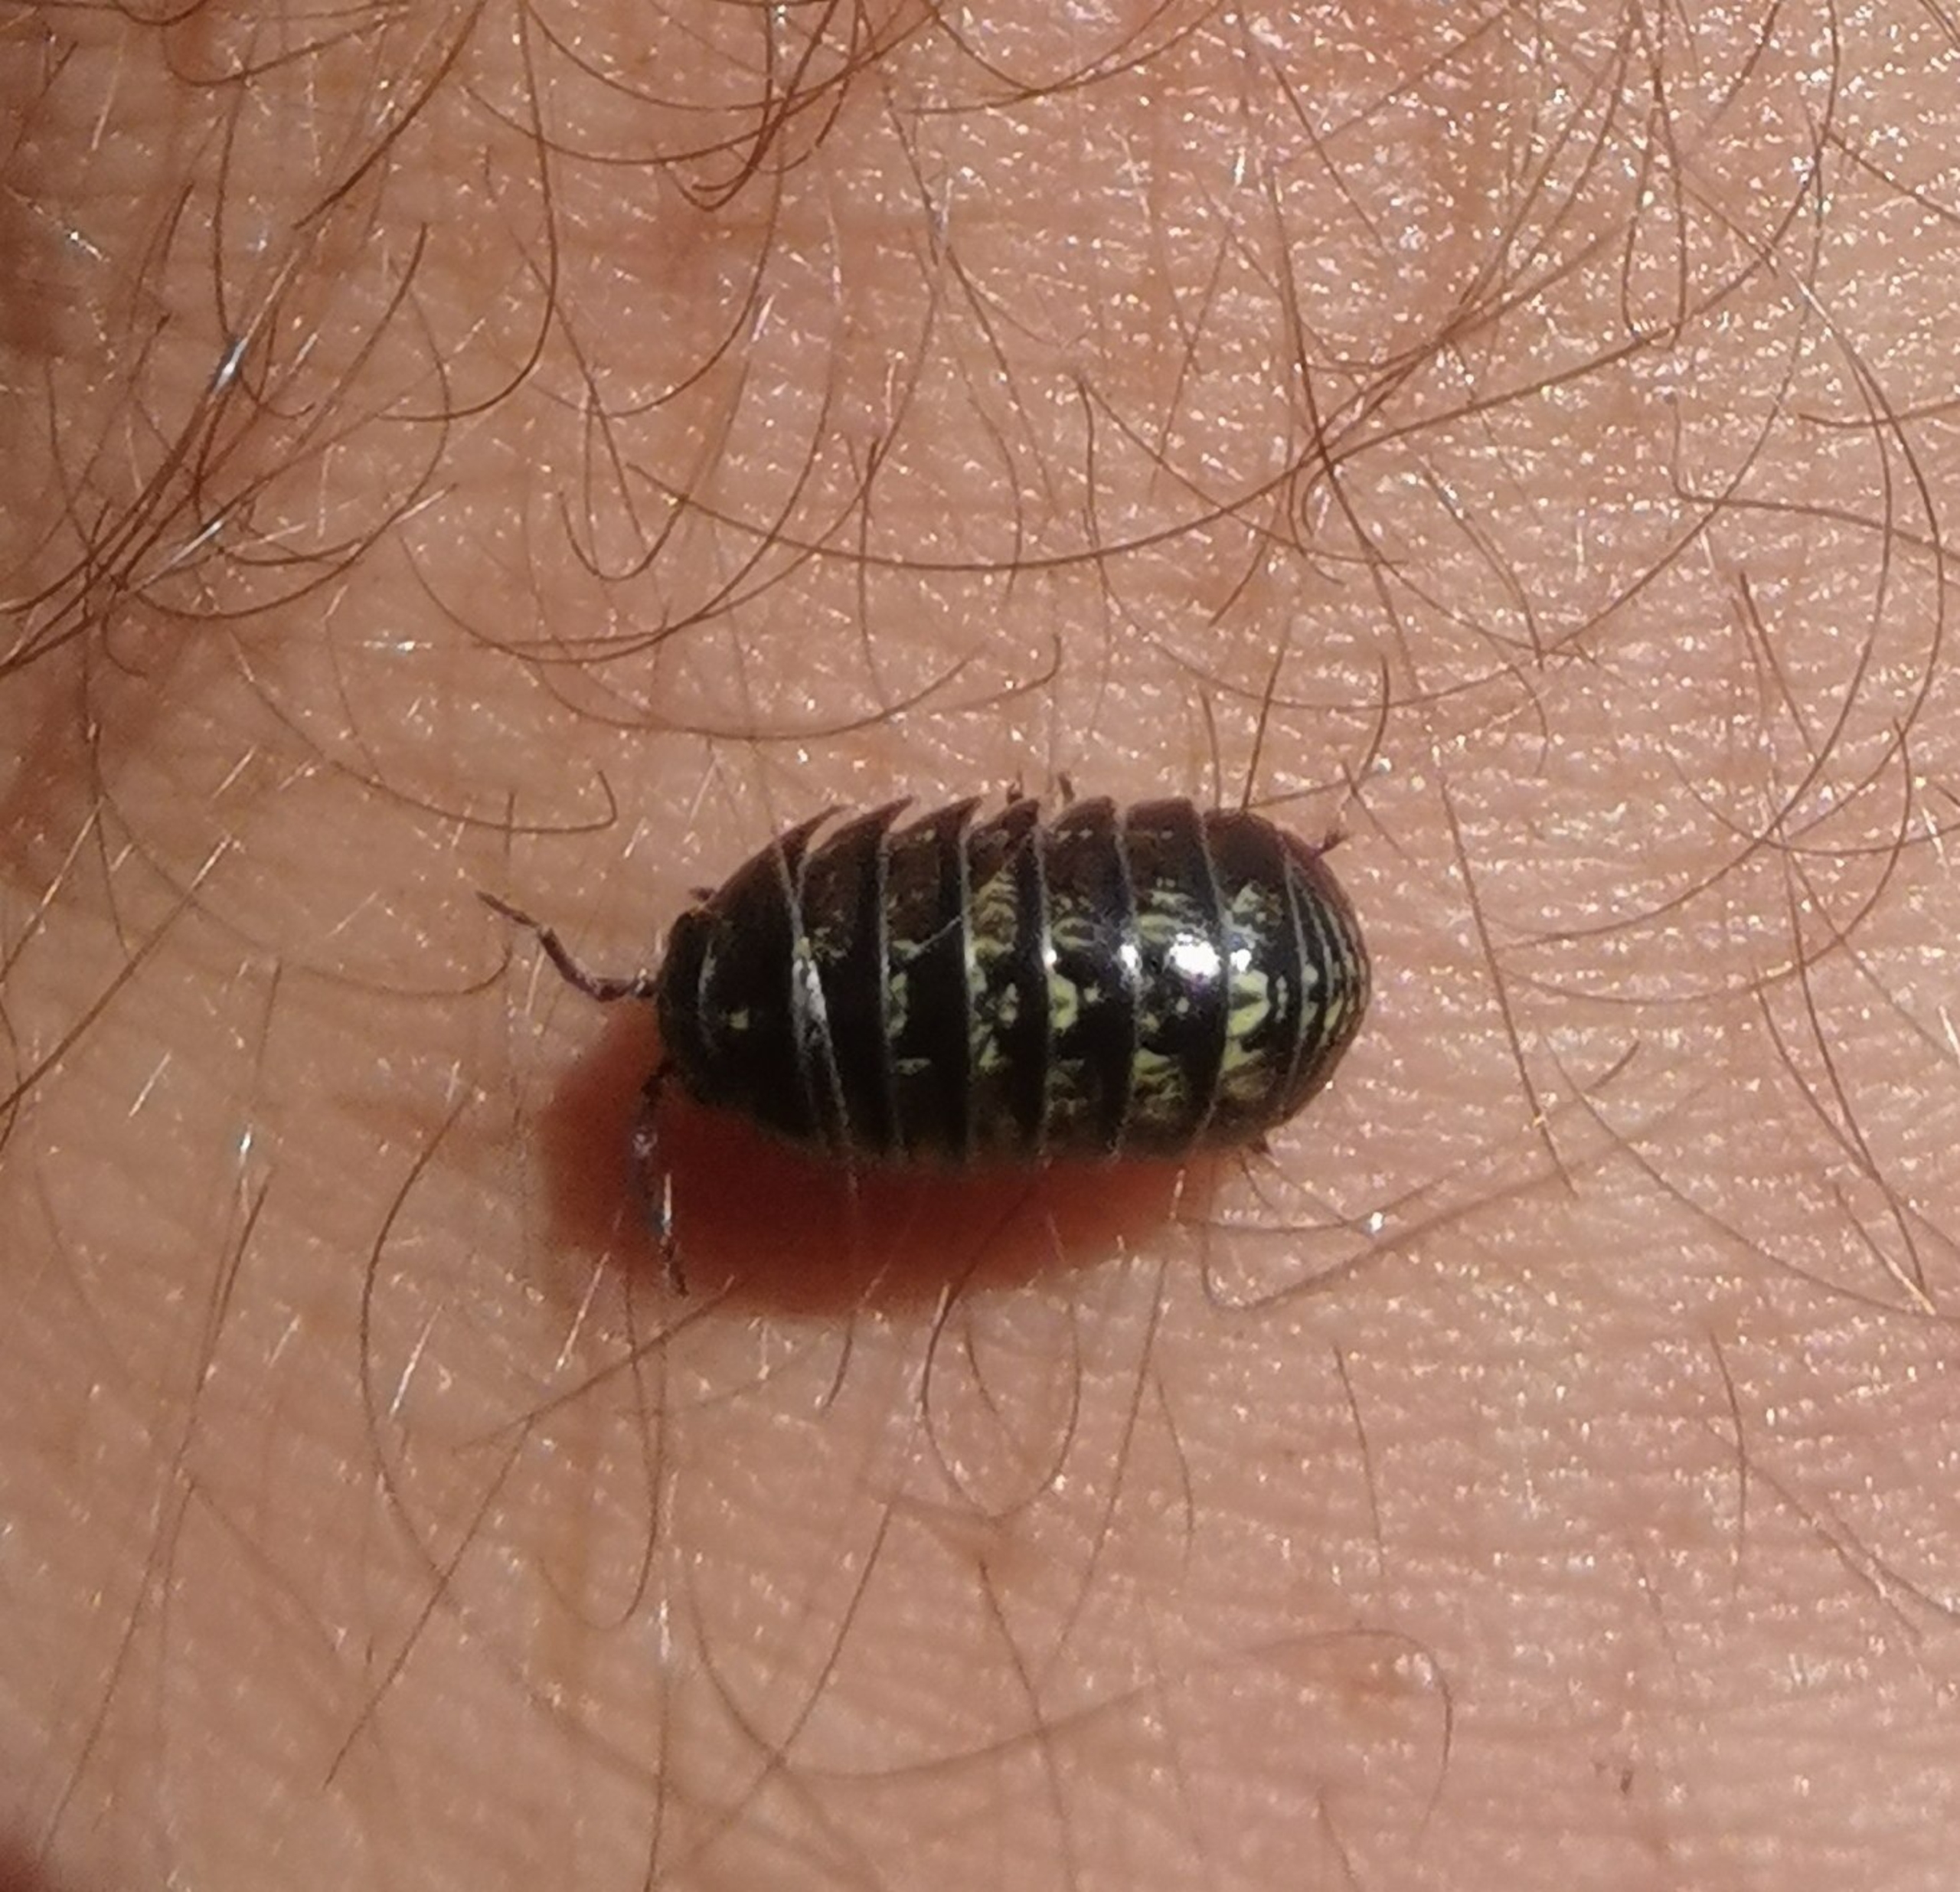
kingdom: Animalia
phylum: Arthropoda
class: Malacostraca
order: Isopoda
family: Armadillidiidae
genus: Armadillidium
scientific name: Armadillidium vulgare
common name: Almindelig kuglebænkebider
